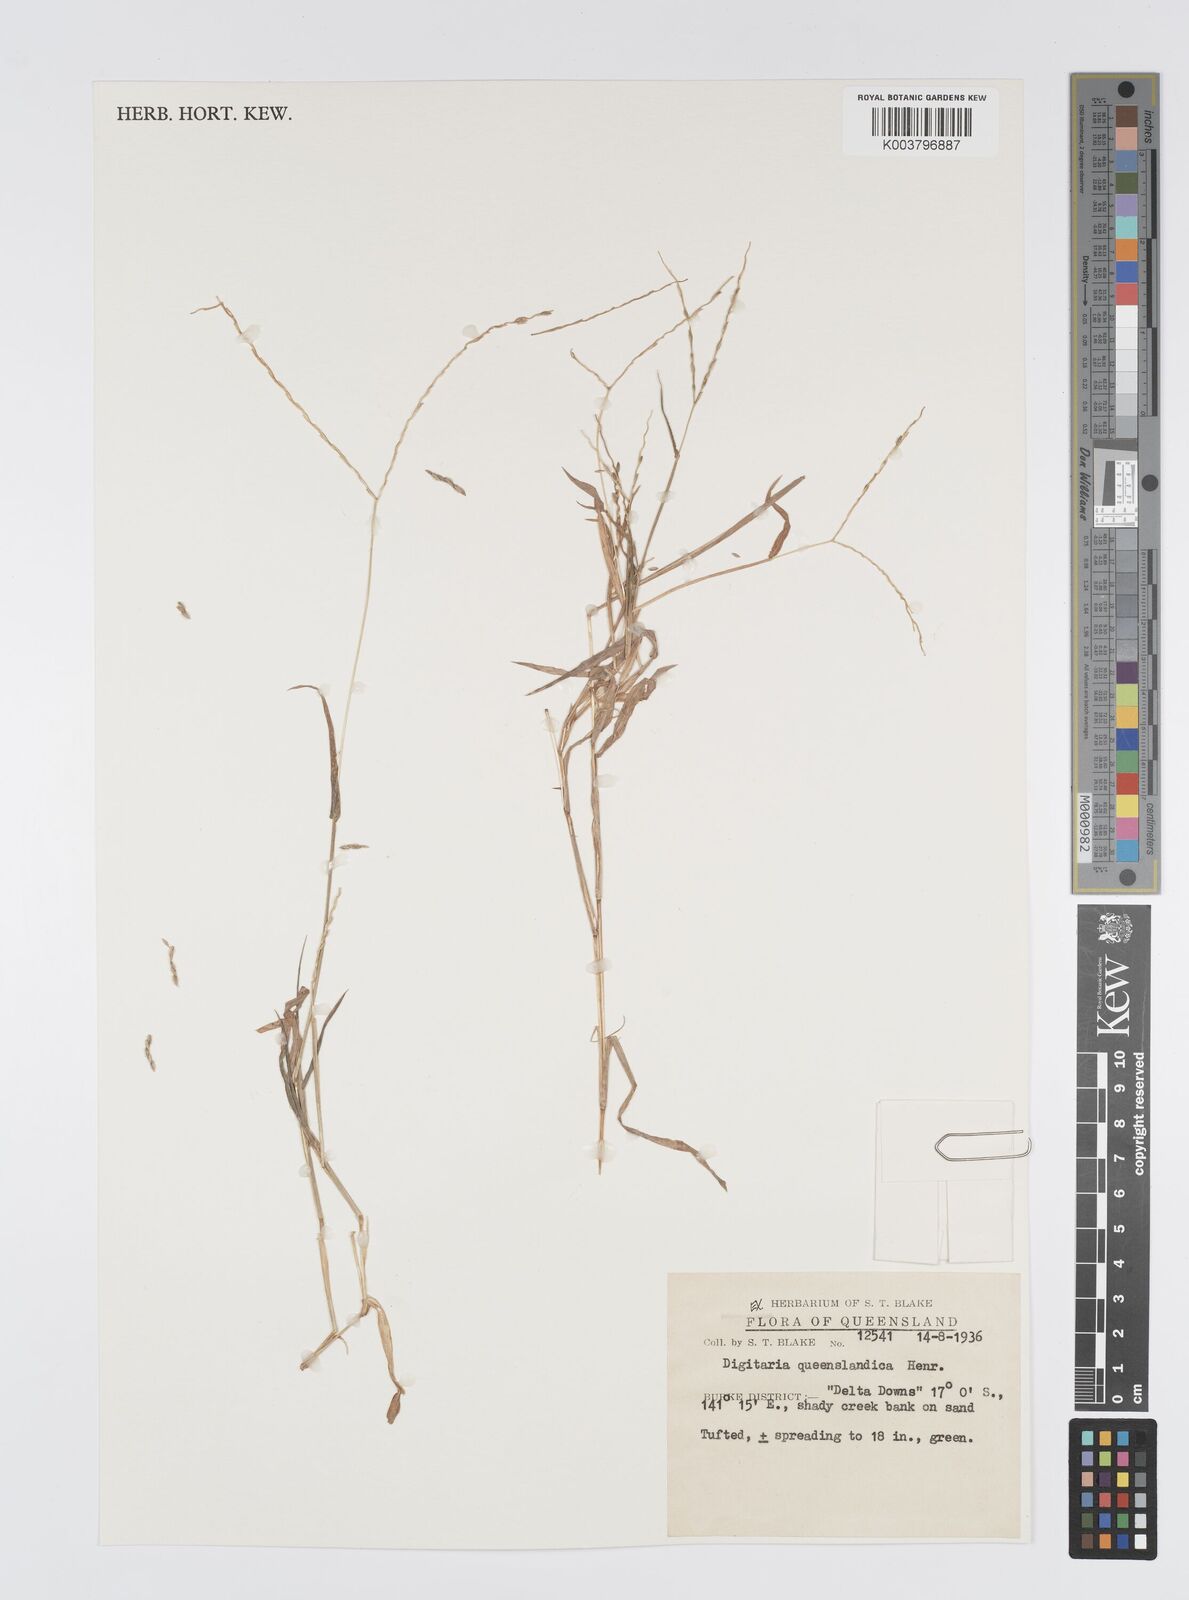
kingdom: Plantae
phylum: Tracheophyta
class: Liliopsida
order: Poales
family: Poaceae
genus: Digitaria
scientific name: Digitaria bicornis
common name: Asian crabgrass
